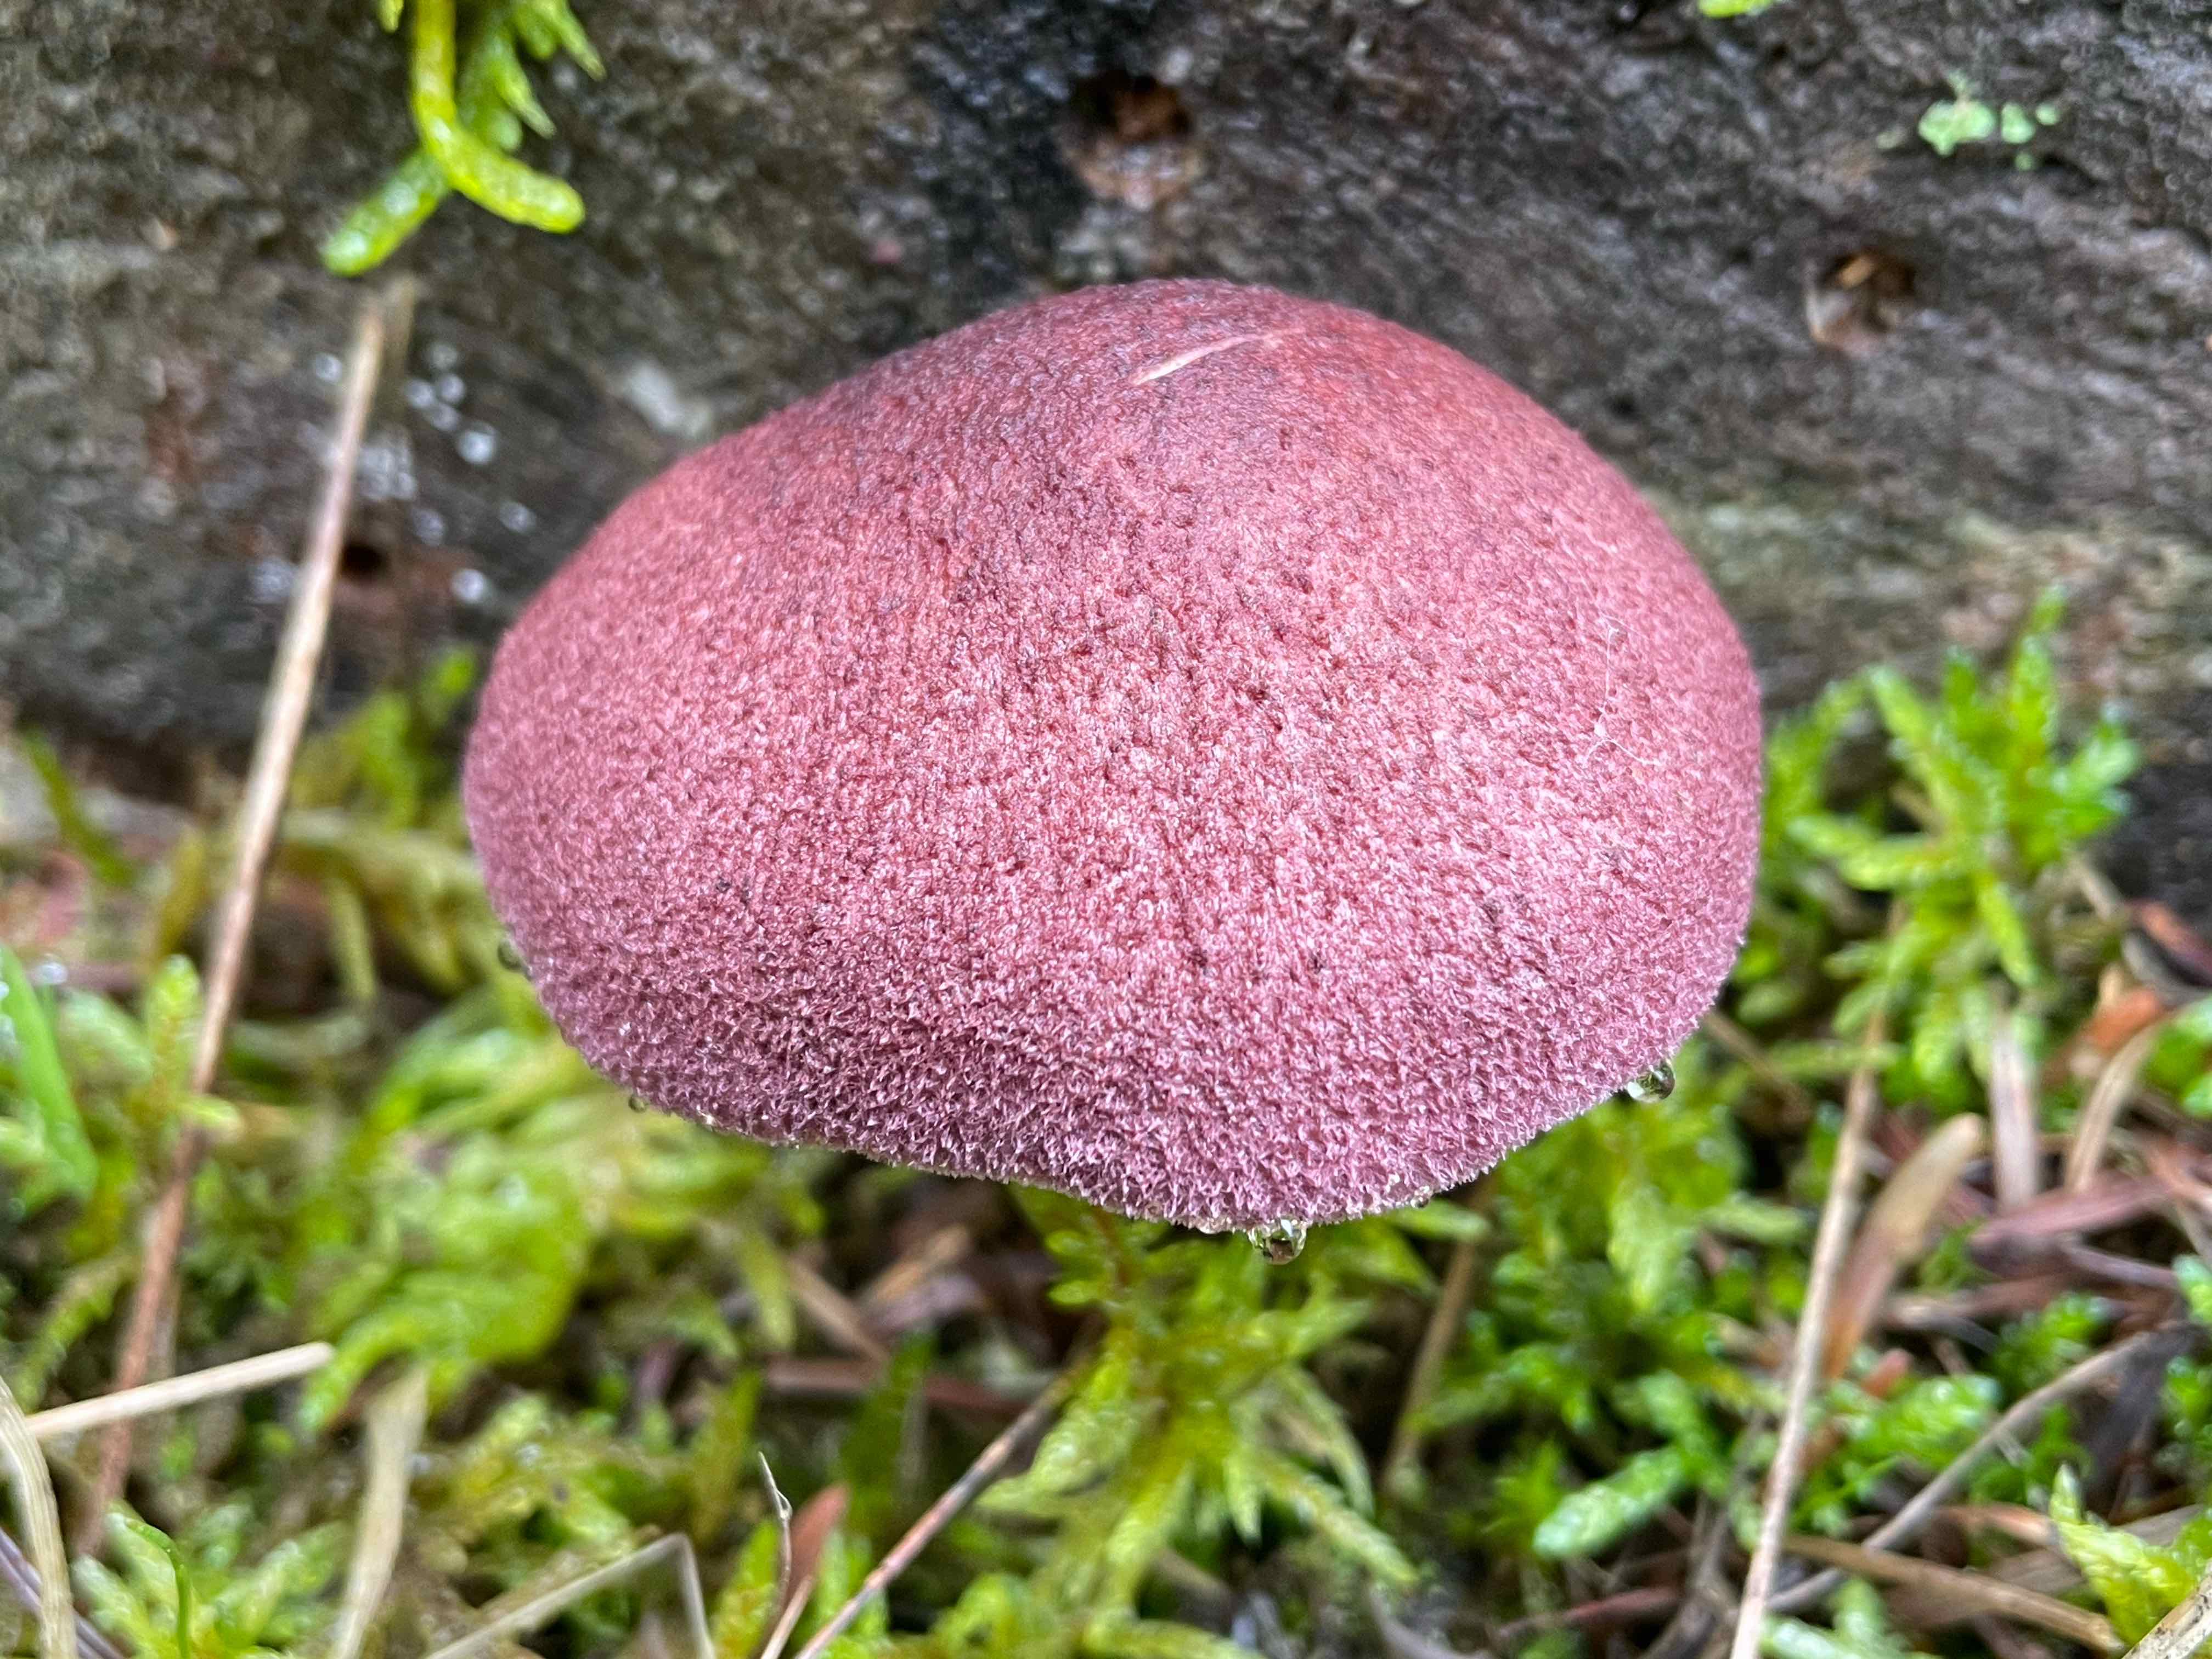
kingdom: Fungi
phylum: Basidiomycota
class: Agaricomycetes
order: Agaricales
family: Tricholomataceae
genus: Tricholomopsis
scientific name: Tricholomopsis rutilans
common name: purpur-væbnerhat
